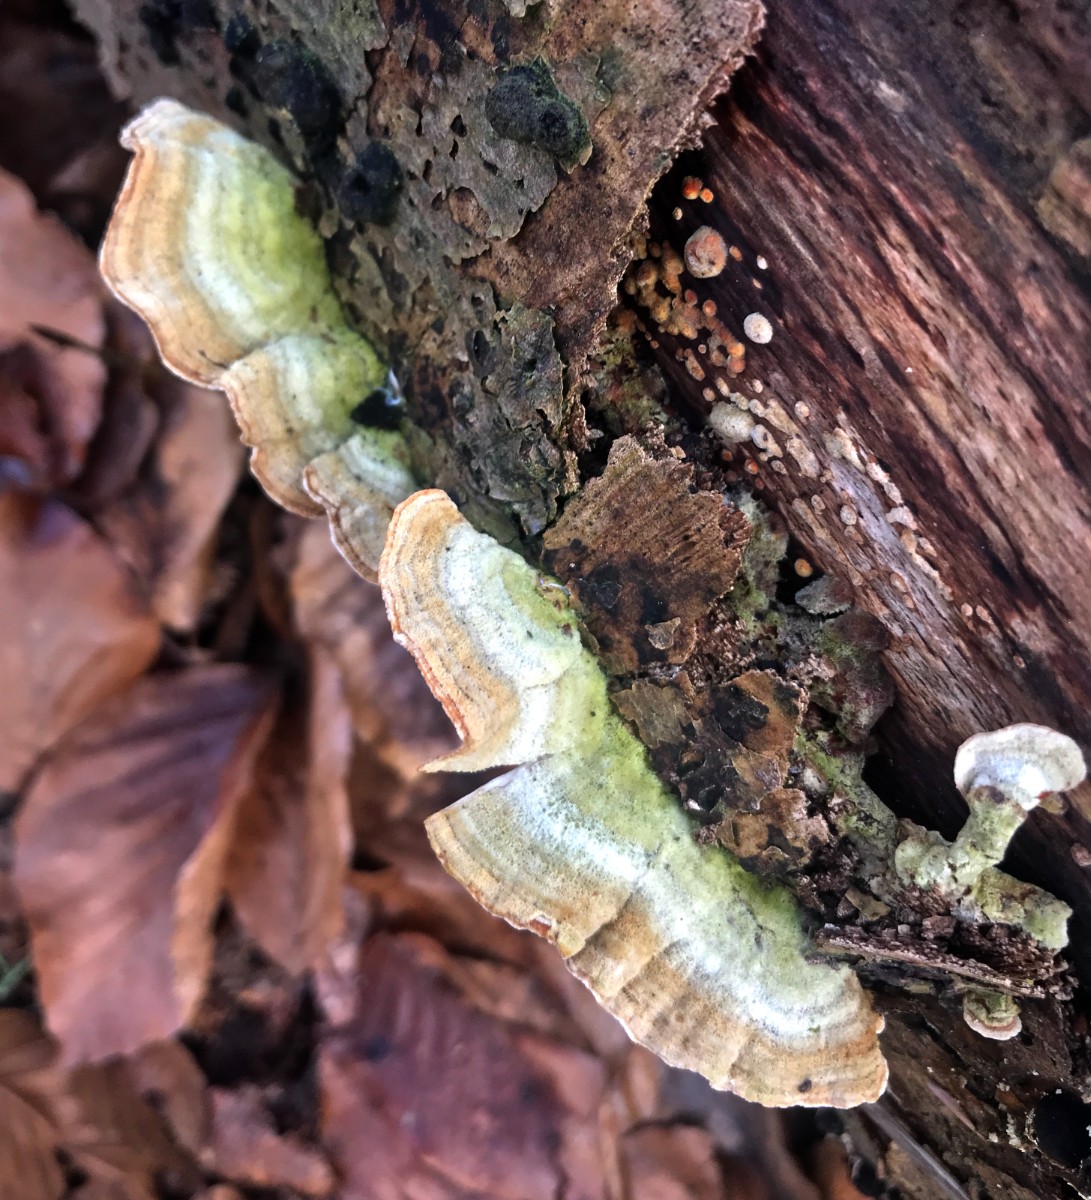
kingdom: Fungi
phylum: Basidiomycota
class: Agaricomycetes
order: Russulales
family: Stereaceae
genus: Stereum
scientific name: Stereum hirsutum
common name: håret lædersvamp
